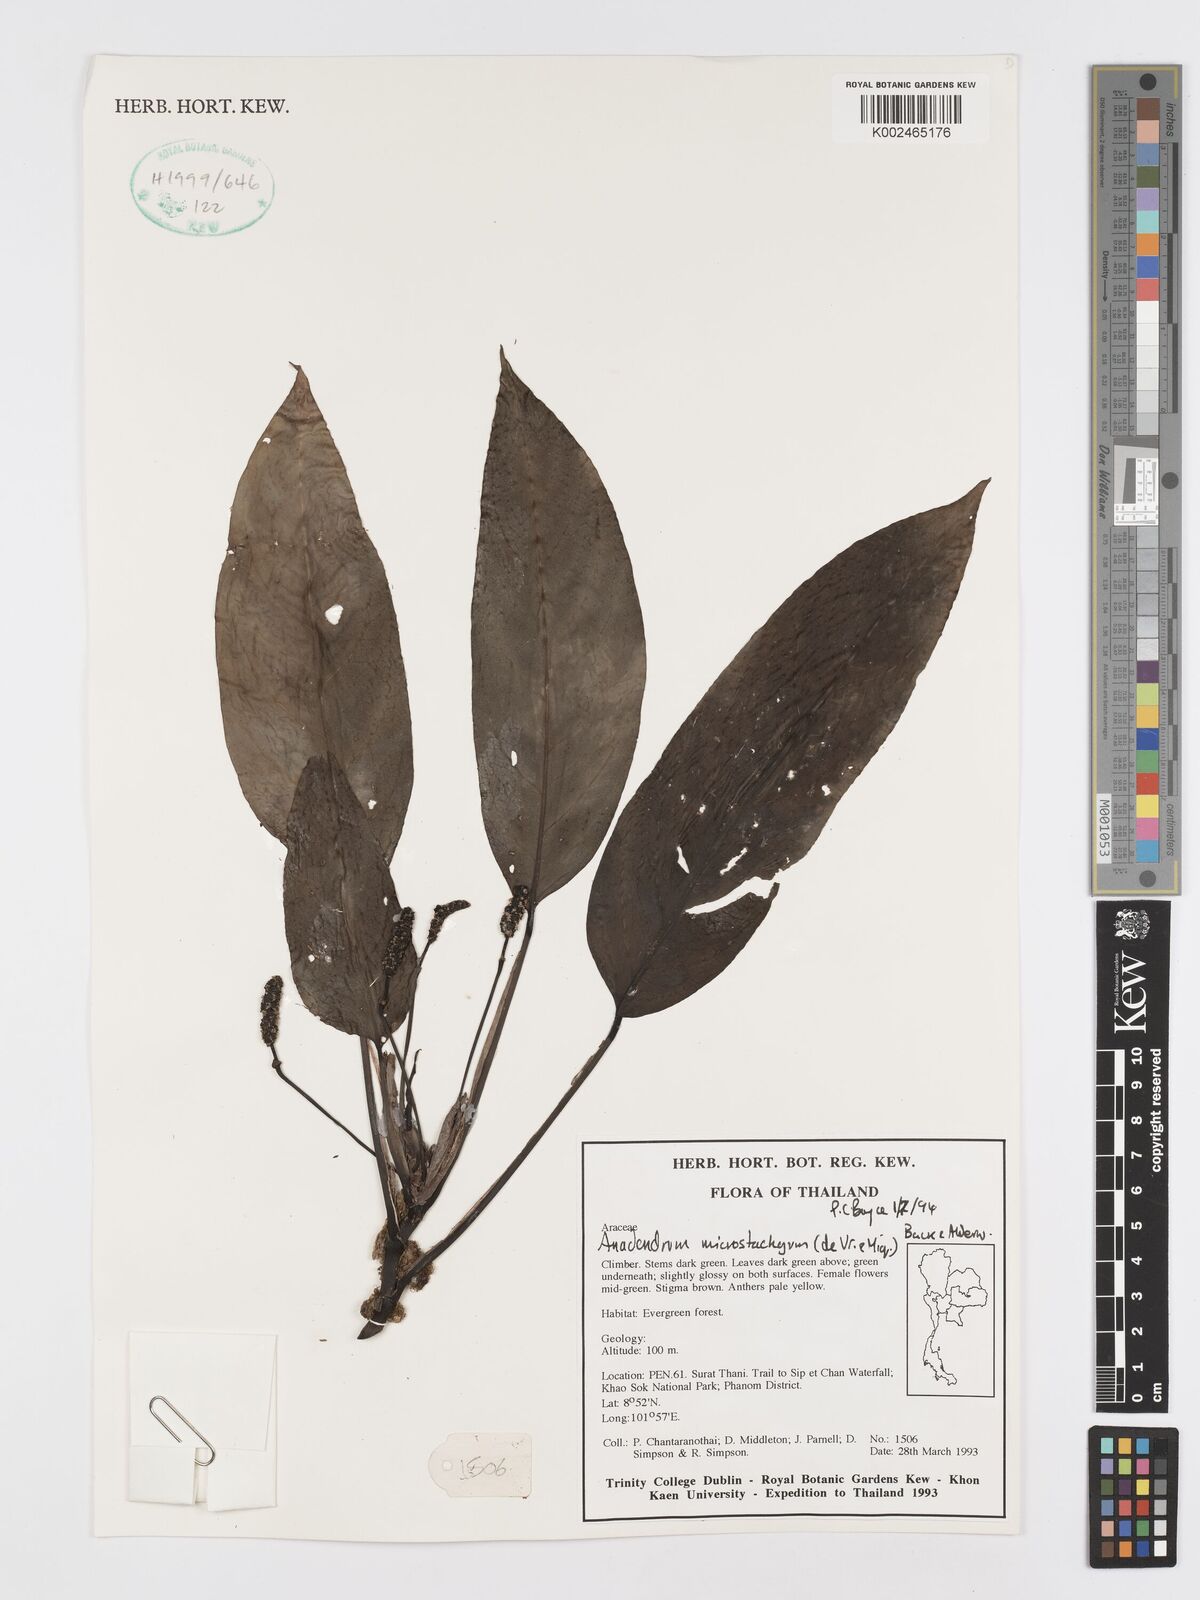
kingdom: Plantae
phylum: Tracheophyta
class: Liliopsida
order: Alismatales
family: Araceae
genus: Anadendrum
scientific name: Anadendrum microstachyum
